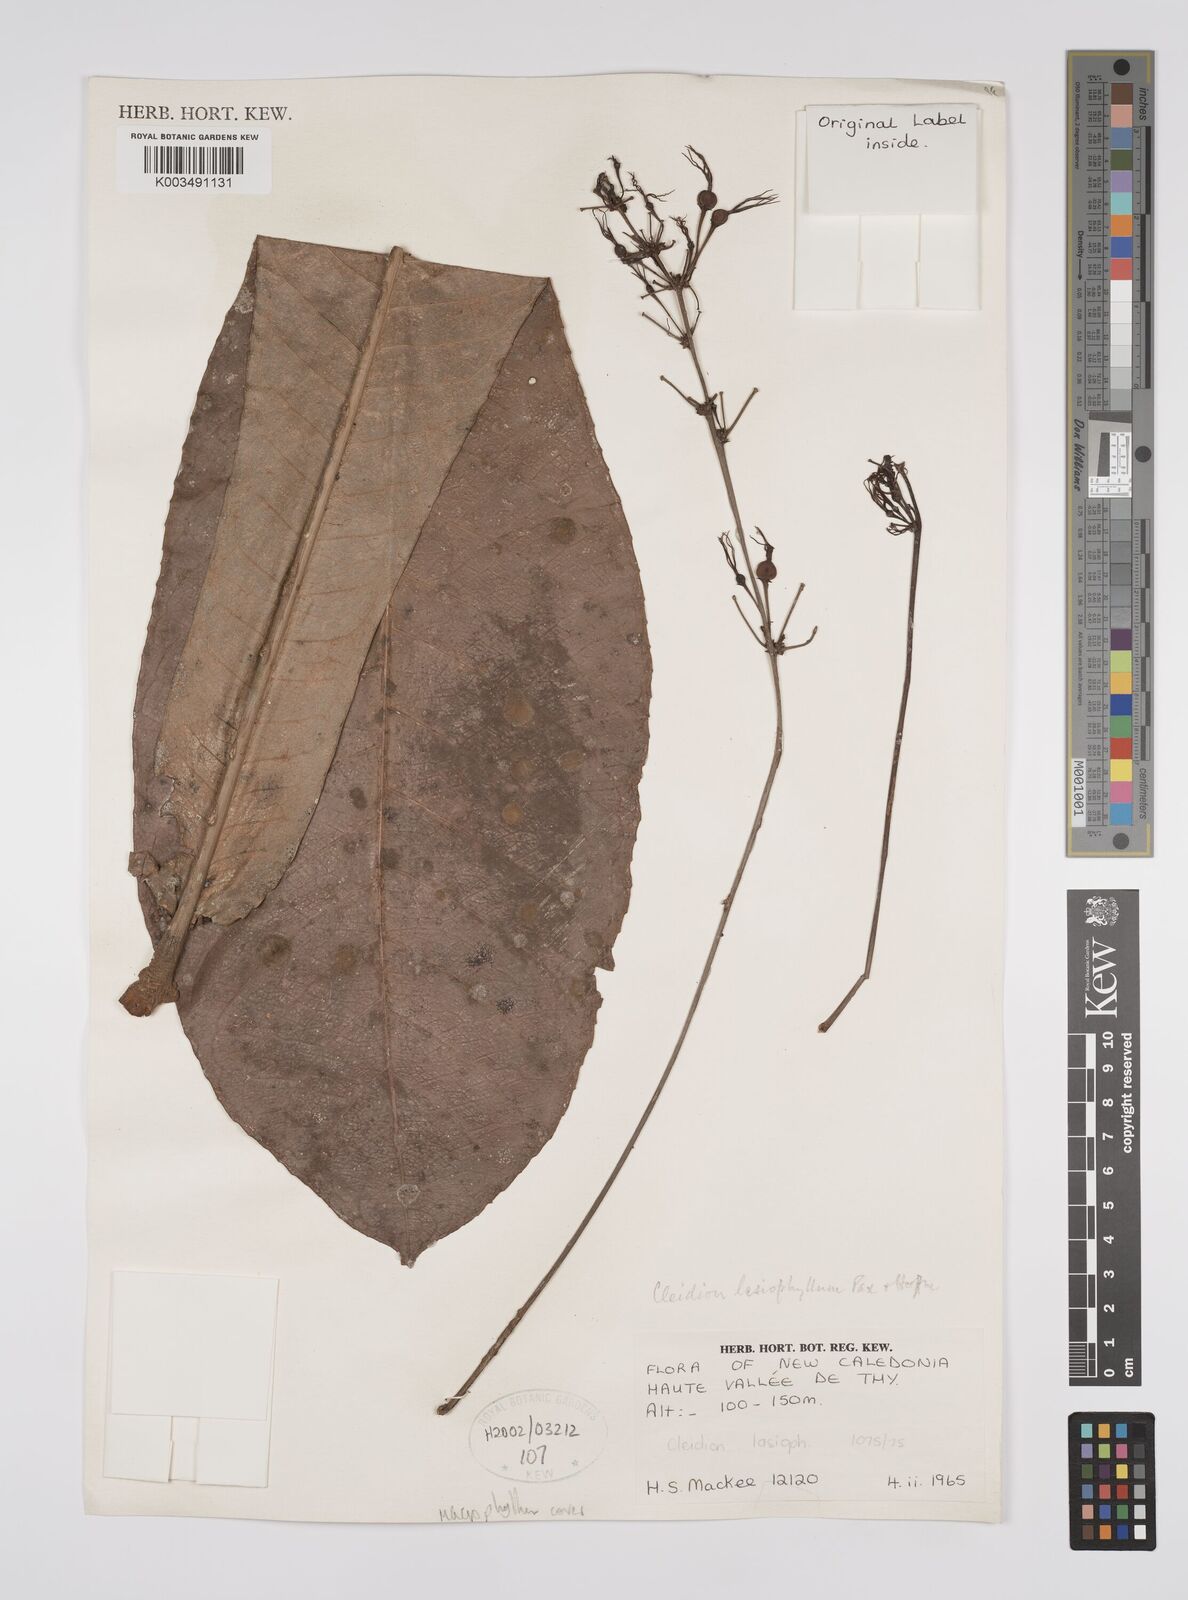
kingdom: Plantae
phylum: Tracheophyta
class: Magnoliopsida
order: Malpighiales
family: Euphorbiaceae
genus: Cleidion
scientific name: Cleidion lasiophyllum
